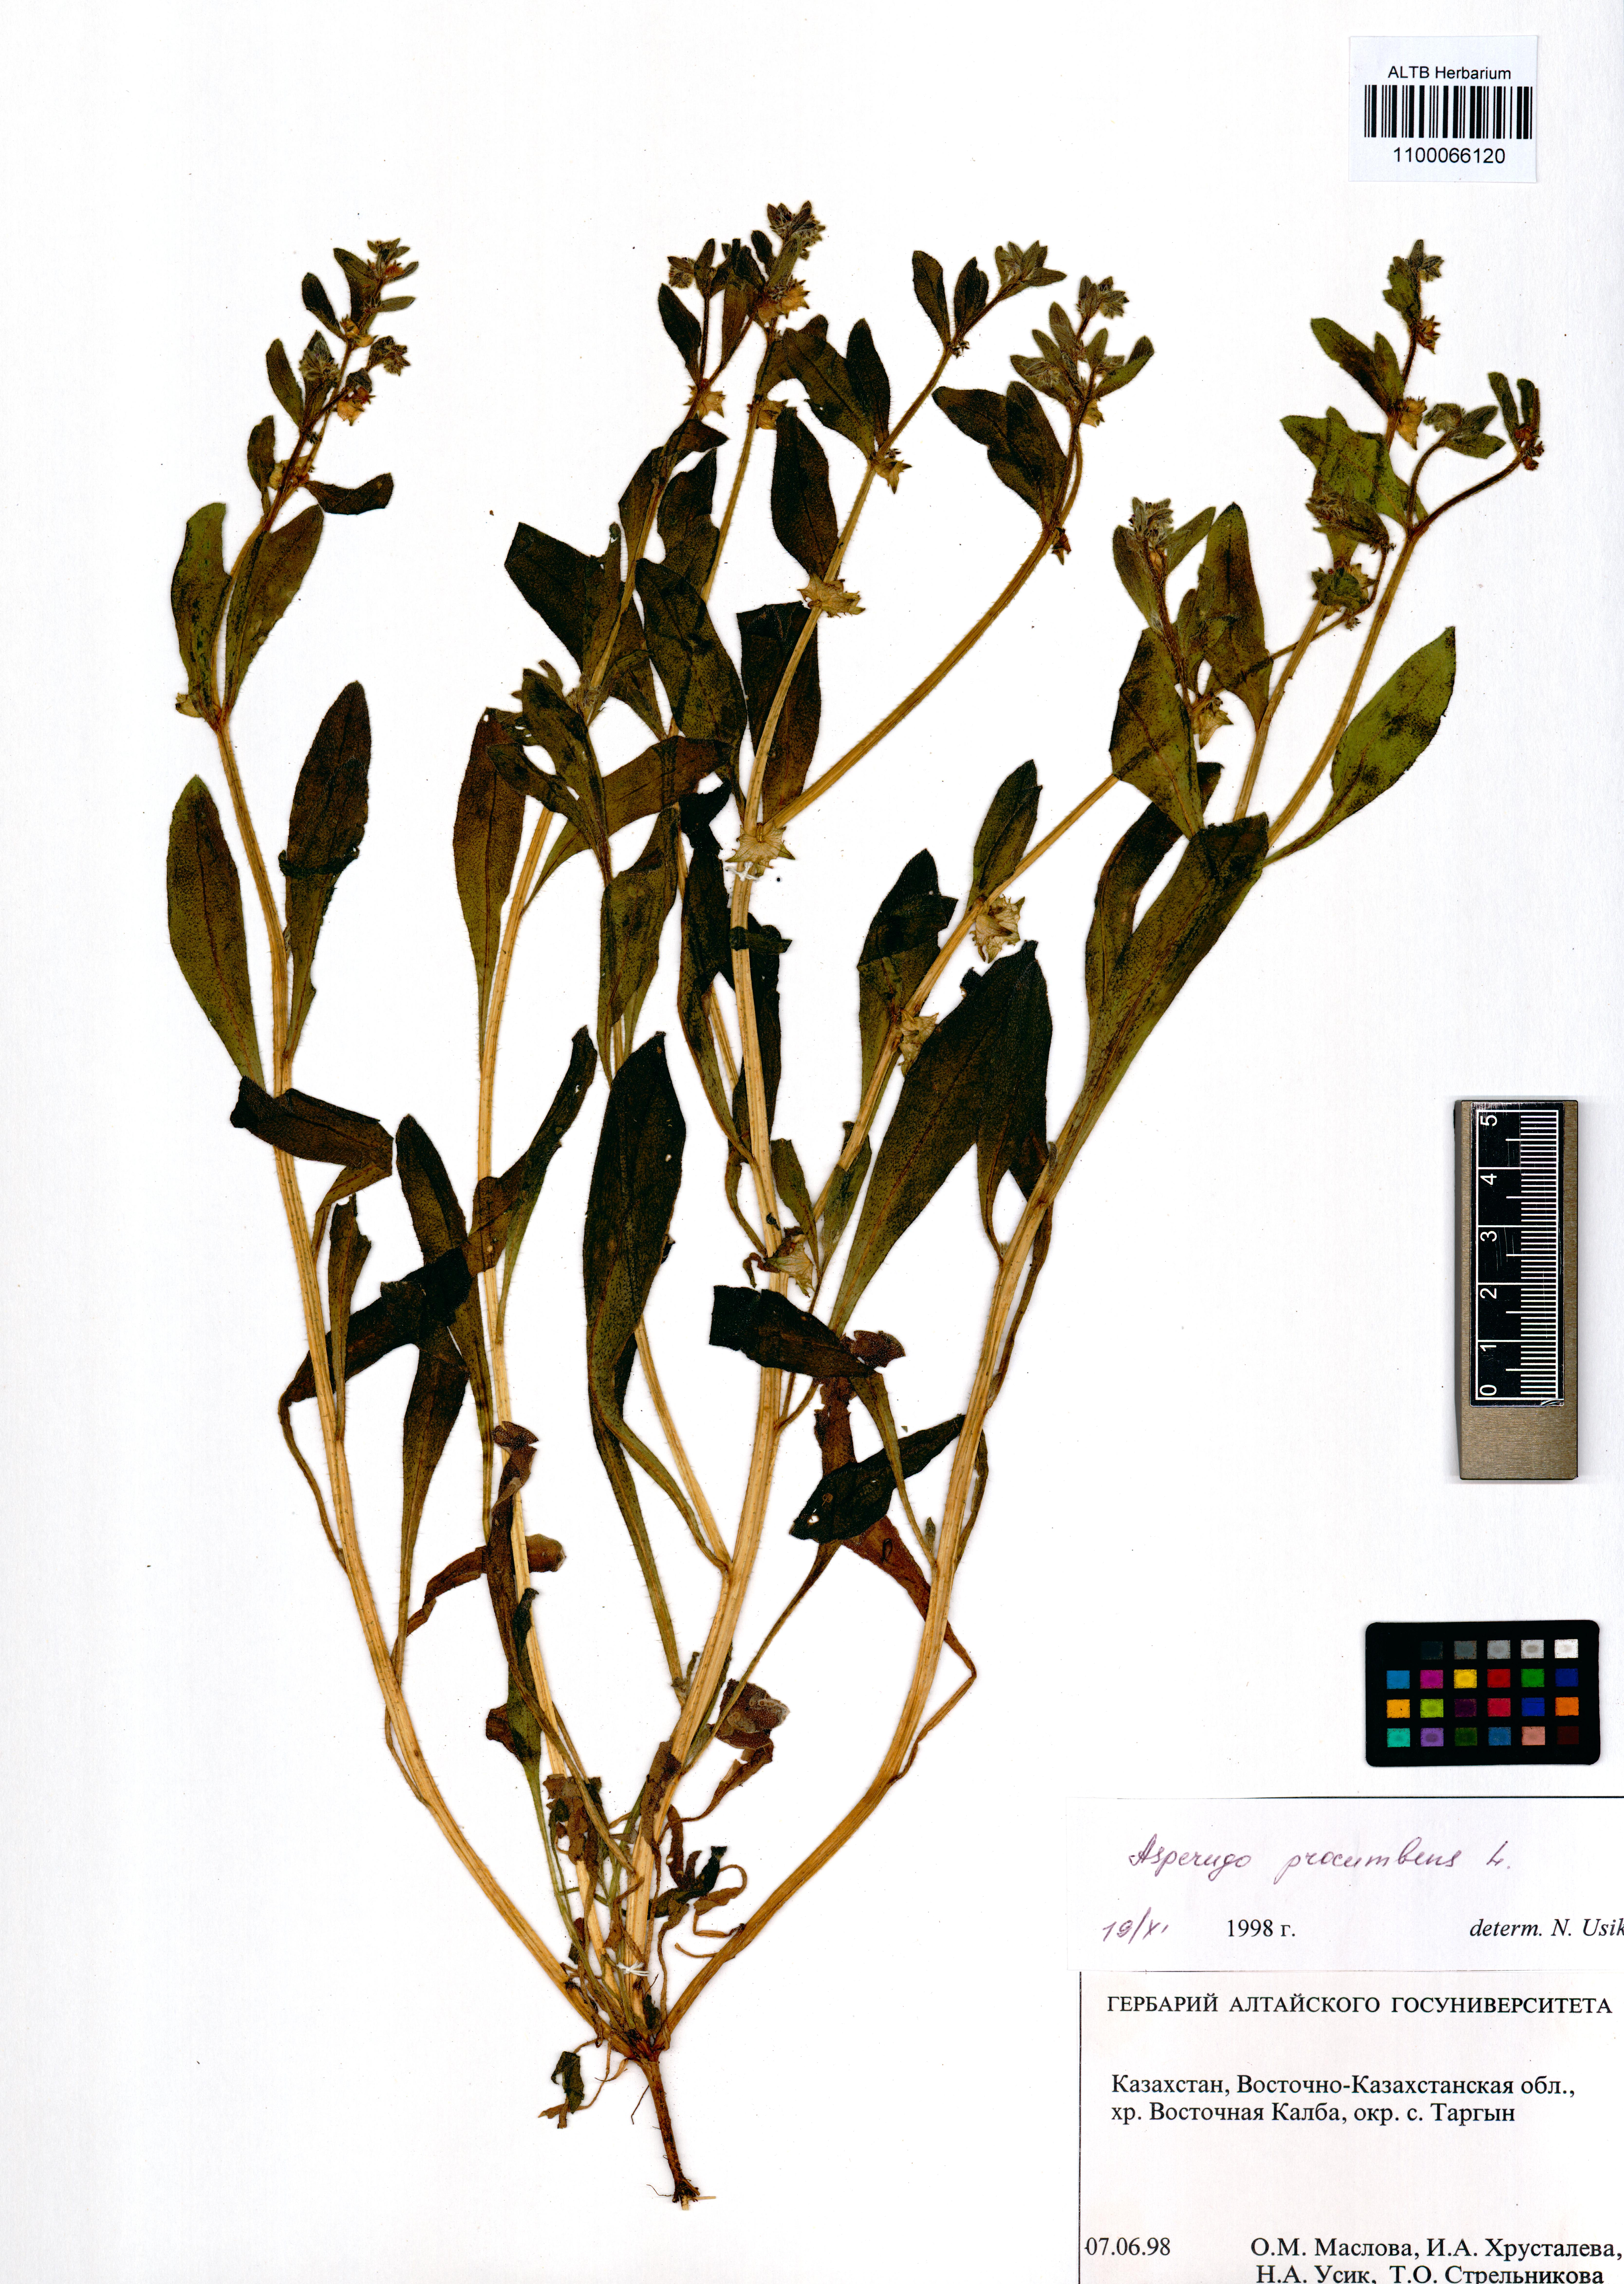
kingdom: Plantae
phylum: Tracheophyta
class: Magnoliopsida
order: Boraginales
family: Boraginaceae
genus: Asperugo
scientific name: Asperugo procumbens
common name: Madwort
